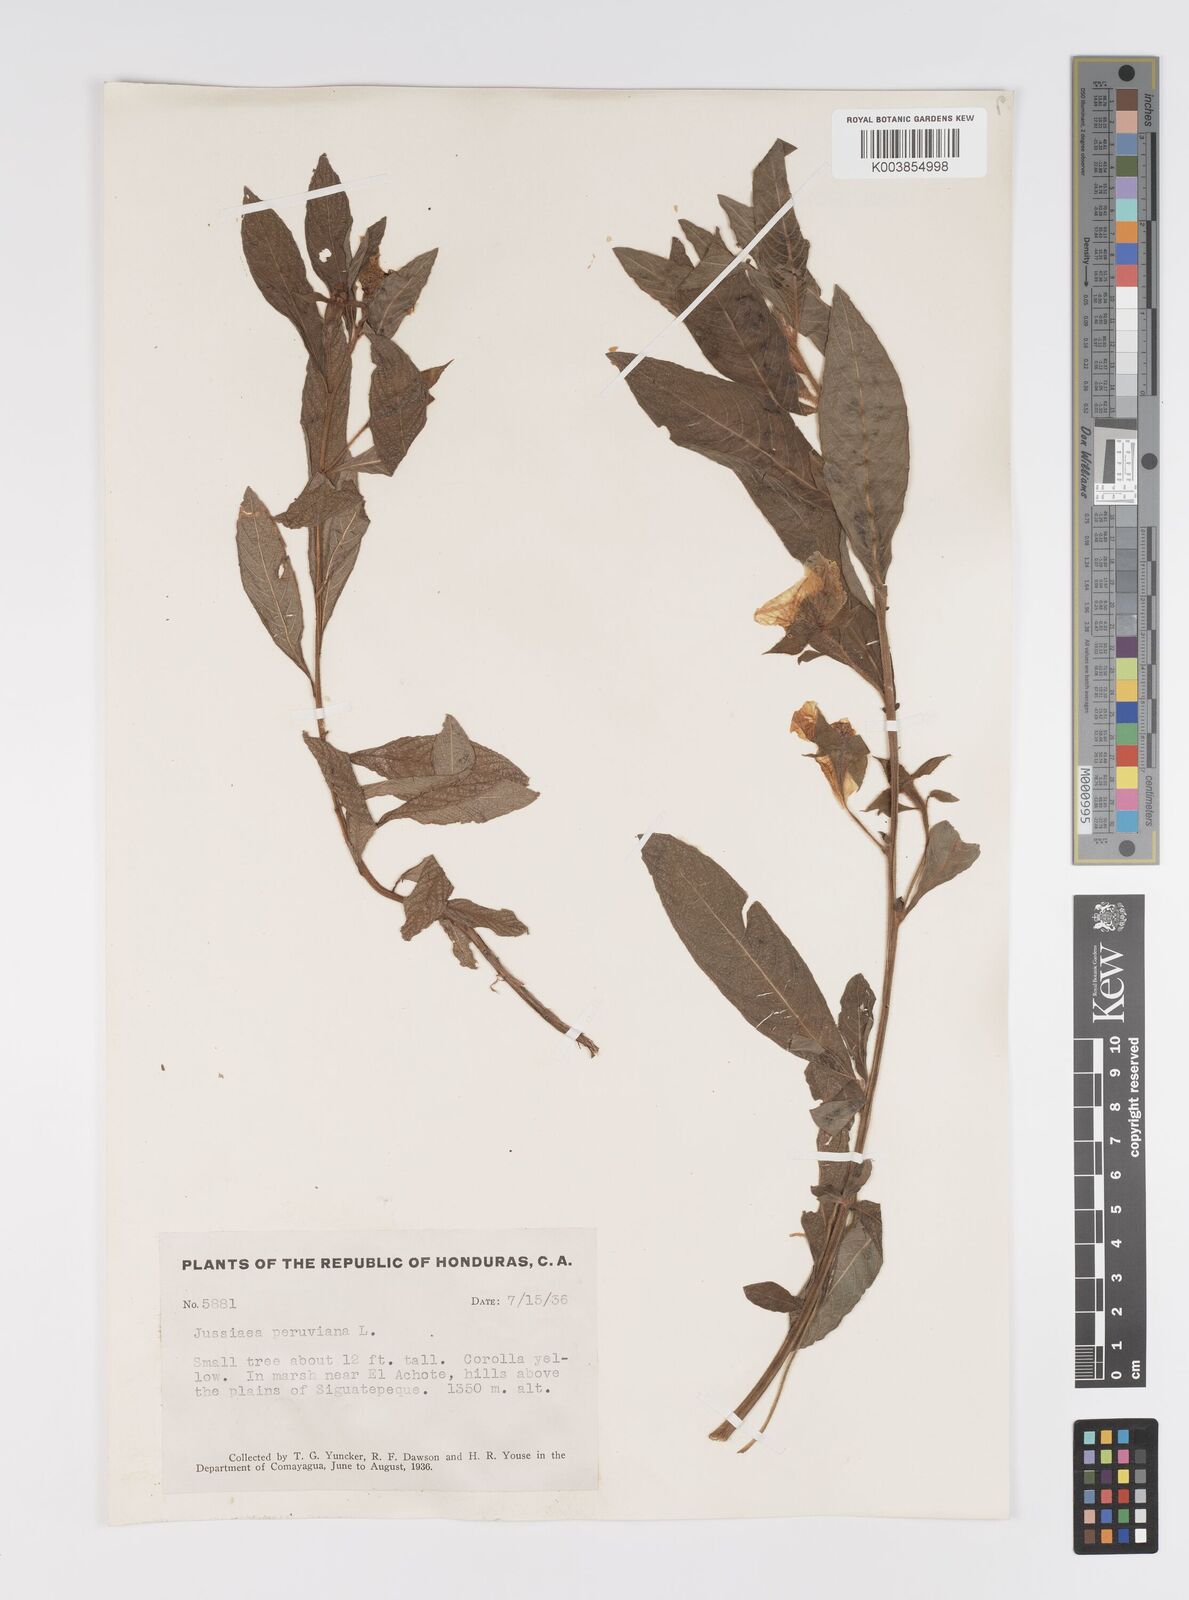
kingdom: Plantae
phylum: Tracheophyta
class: Magnoliopsida
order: Myrtales
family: Onagraceae
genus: Ludwigia
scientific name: Ludwigia peruviana
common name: Peruvian primrose-willow
